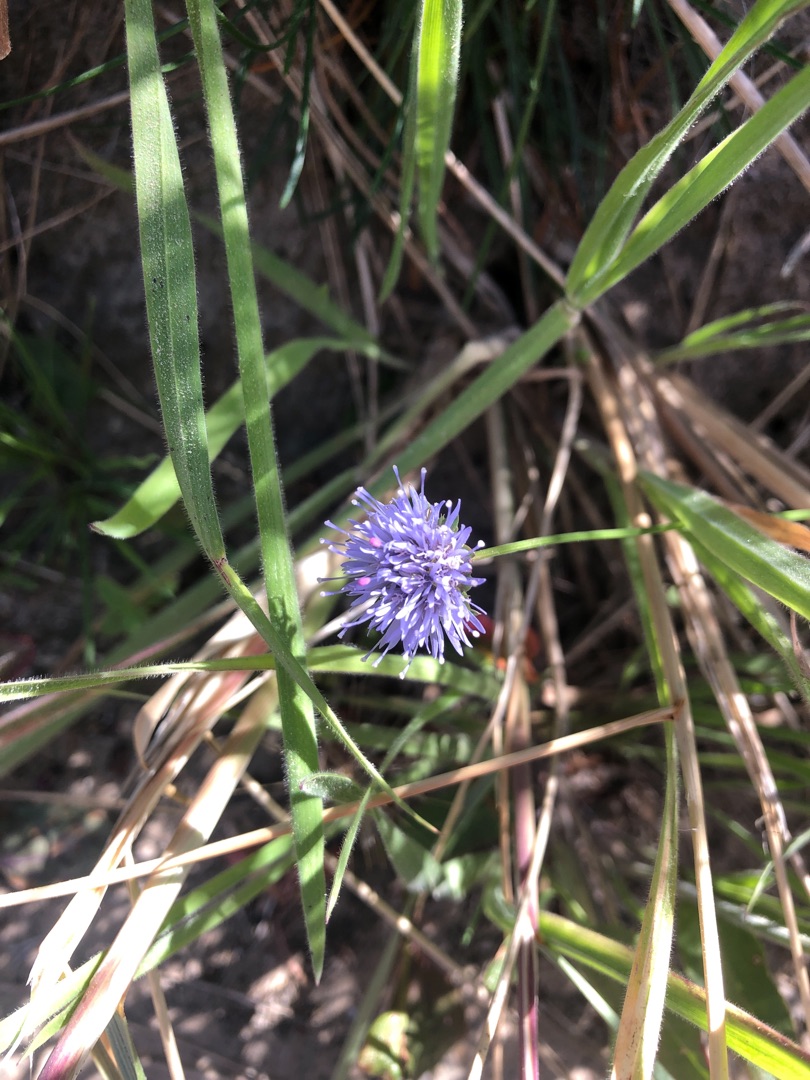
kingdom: Plantae
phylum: Tracheophyta
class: Magnoliopsida
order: Asterales
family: Campanulaceae
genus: Jasione
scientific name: Jasione montana
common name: Blåmunke
